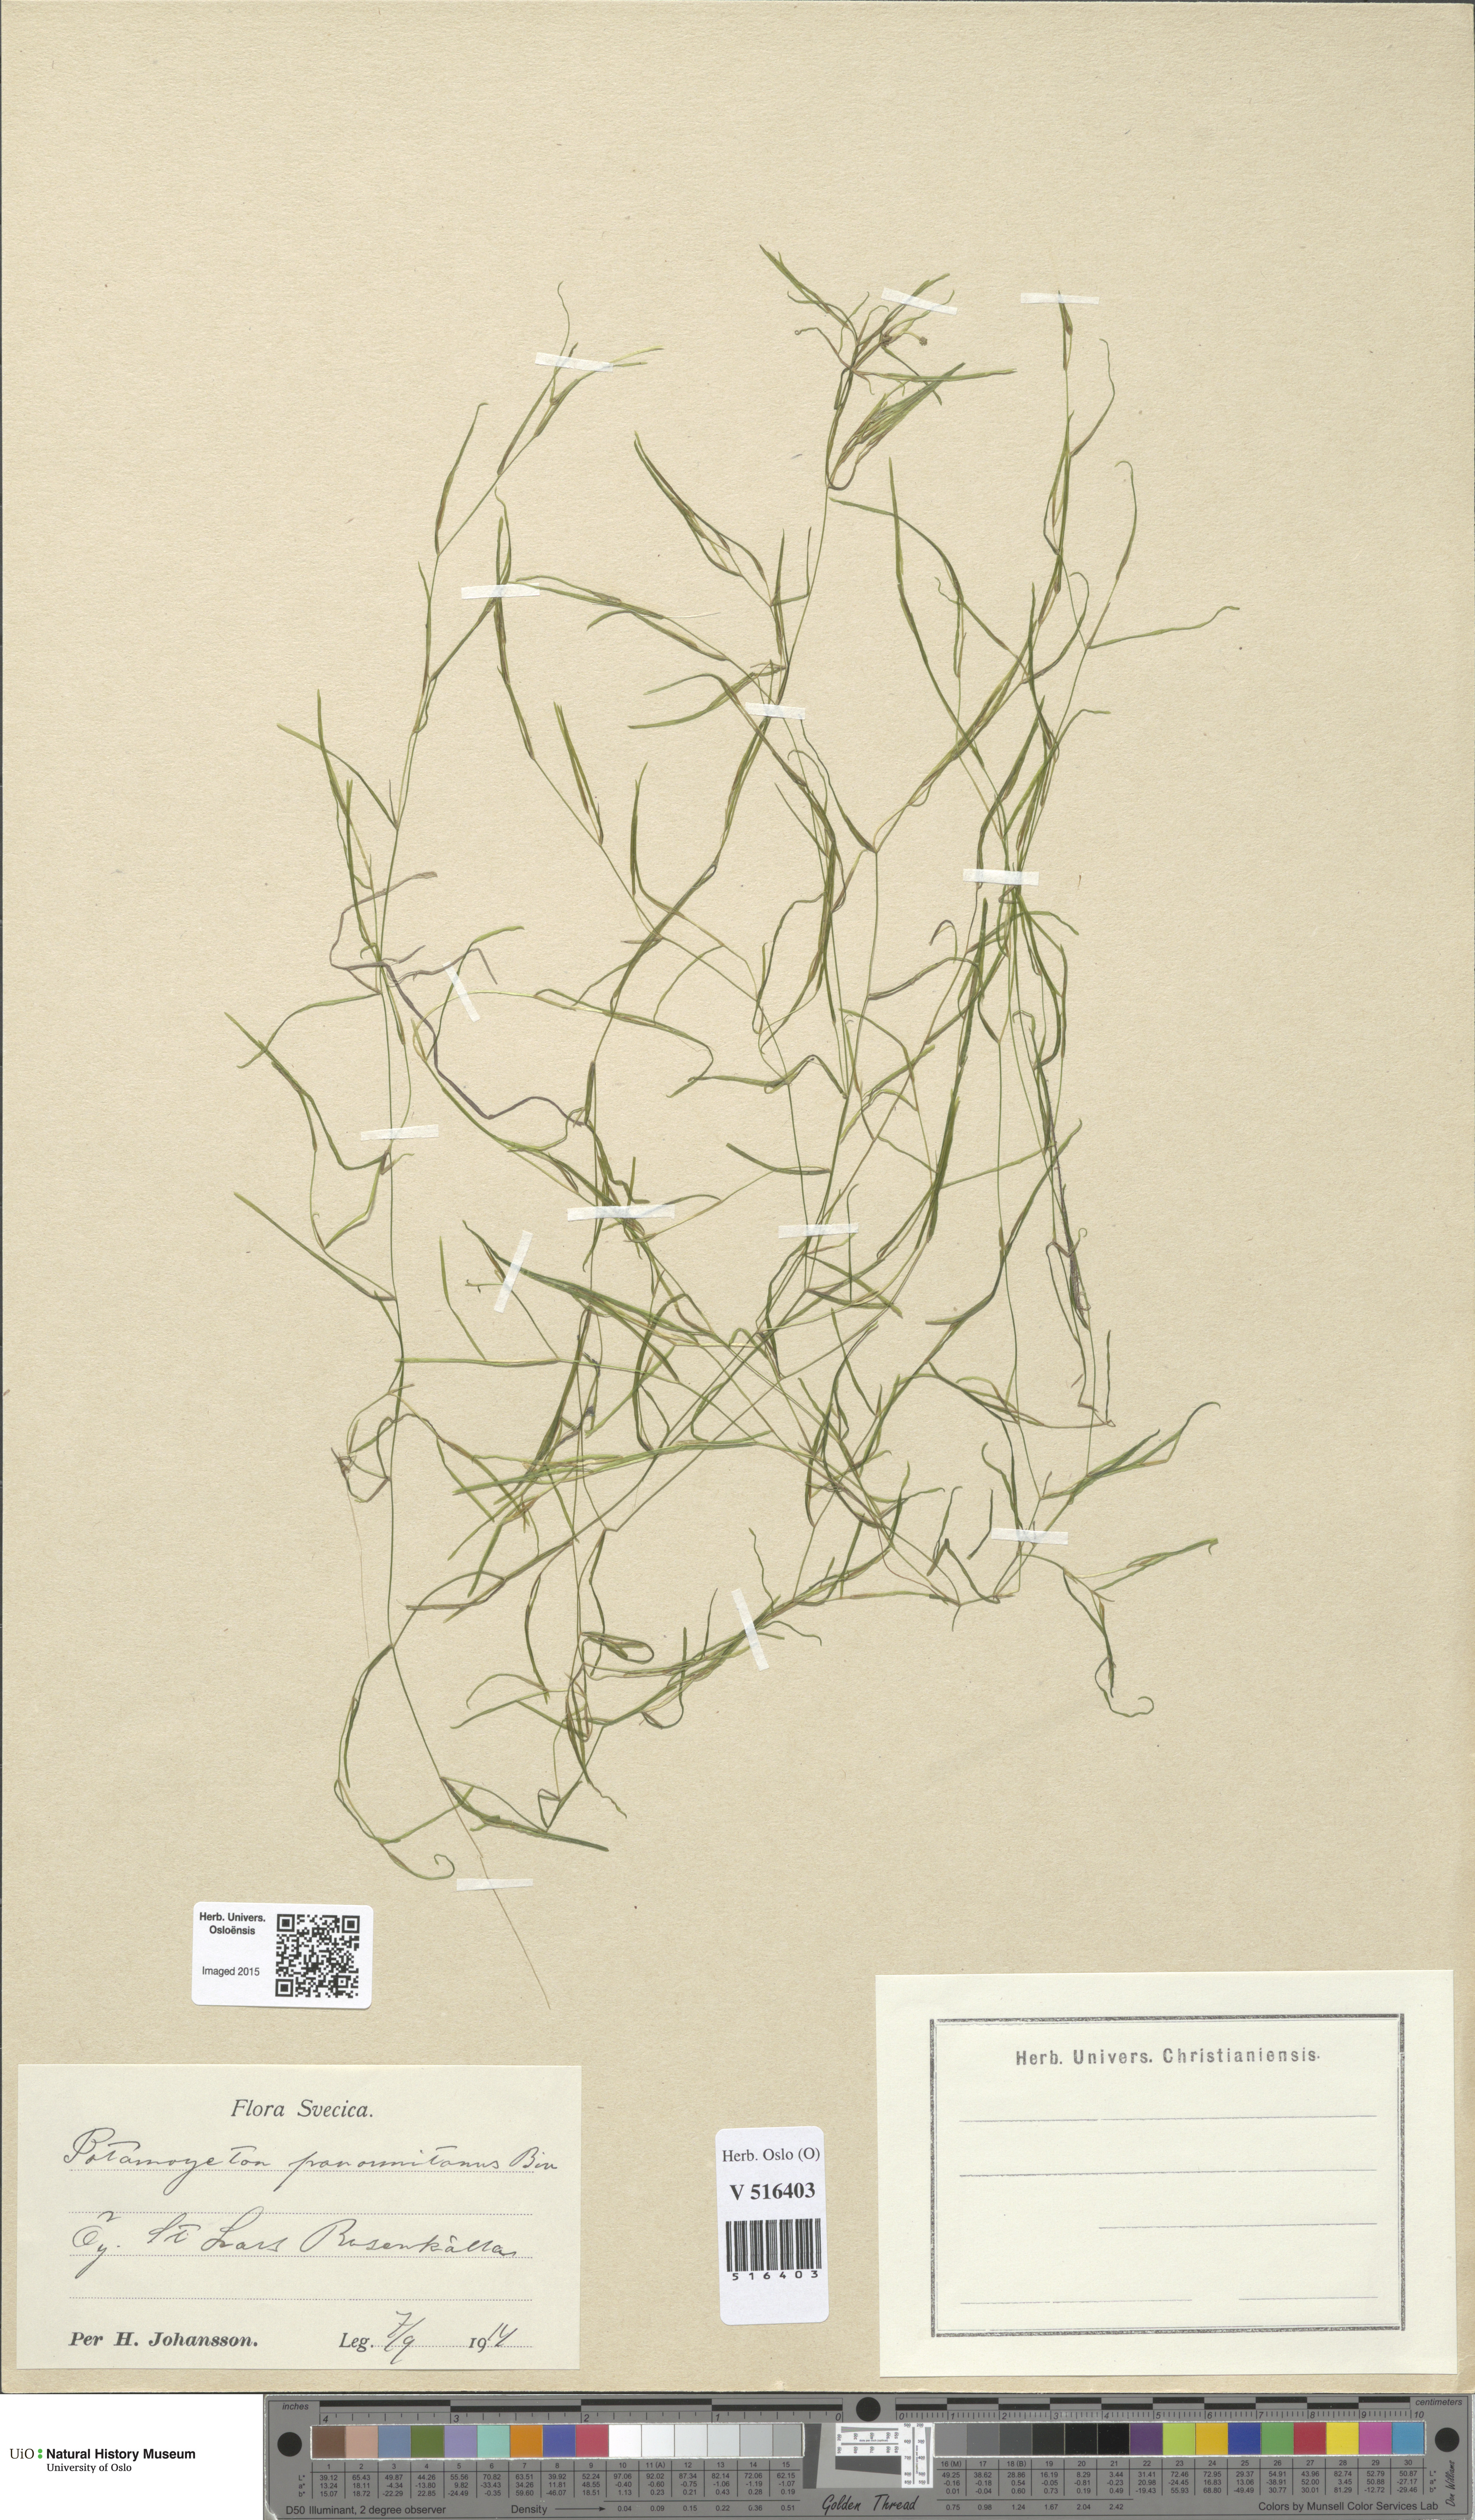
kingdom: Plantae
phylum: Tracheophyta
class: Liliopsida
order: Alismatales
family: Potamogetonaceae
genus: Potamogeton
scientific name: Potamogeton praelongus
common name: Long-stalked pondweed
